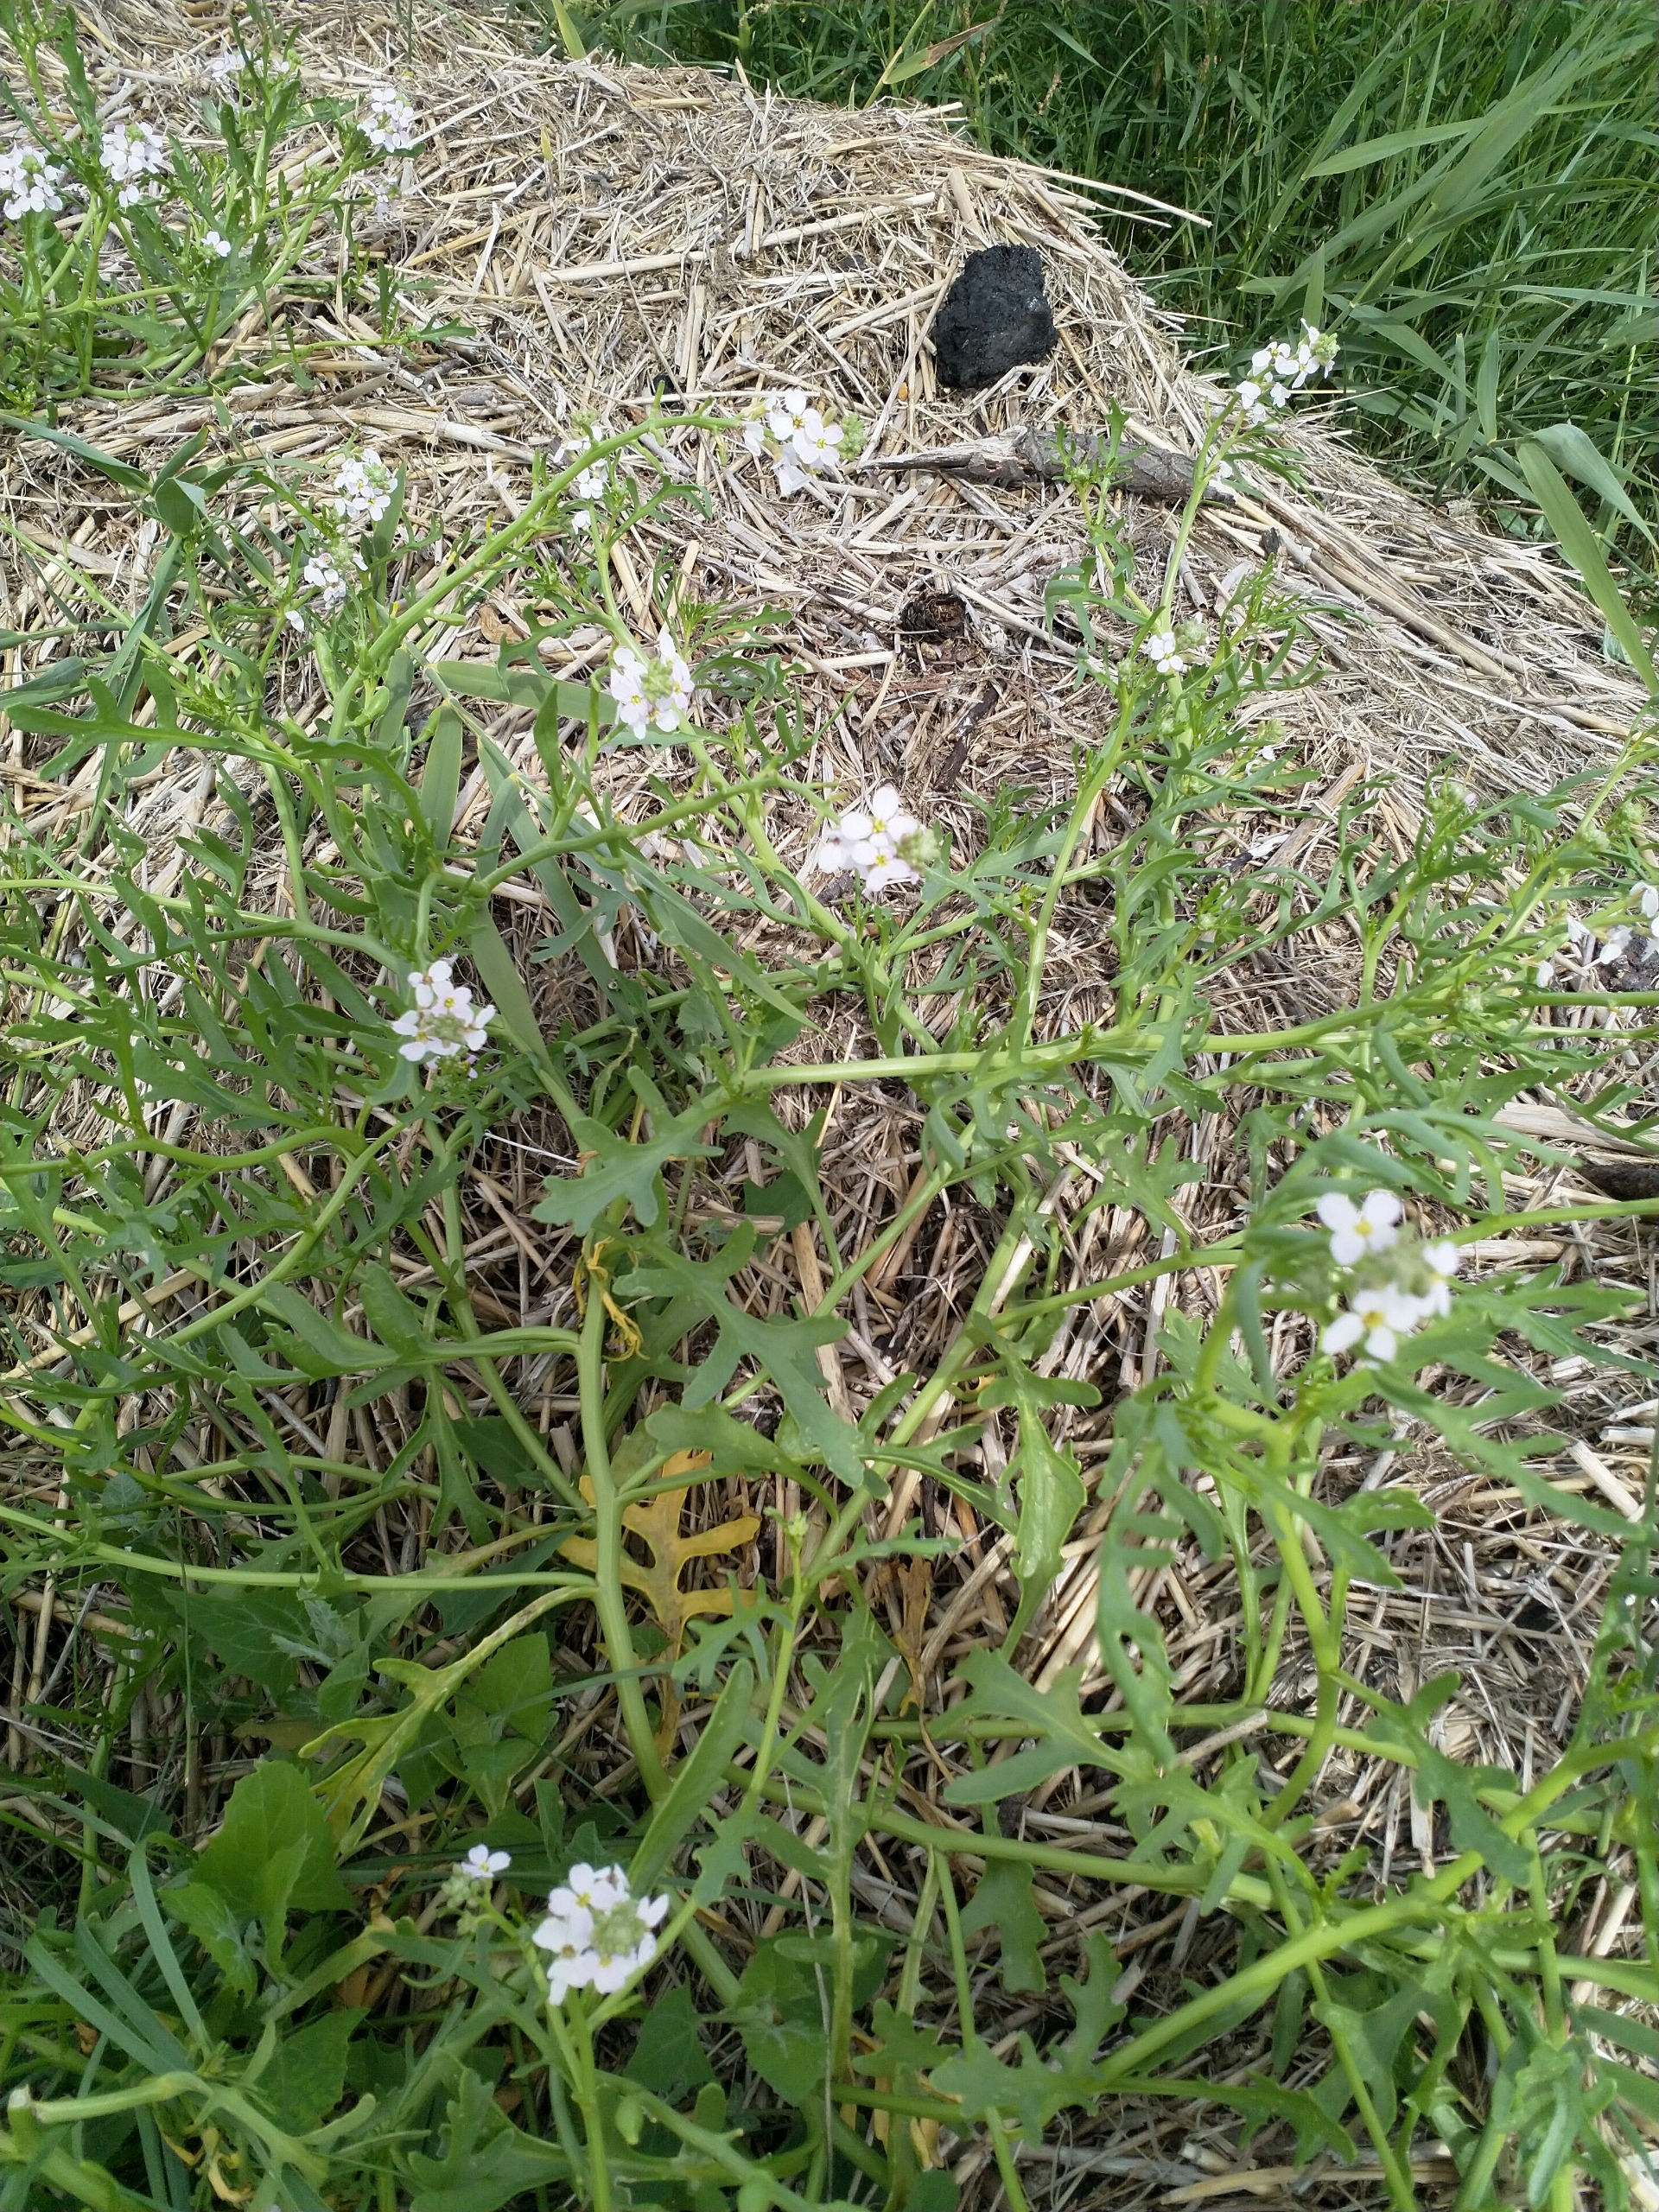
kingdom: Plantae
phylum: Tracheophyta
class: Magnoliopsida
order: Brassicales
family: Brassicaceae
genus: Cakile
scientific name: Cakile maritima
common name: Strandsennep
